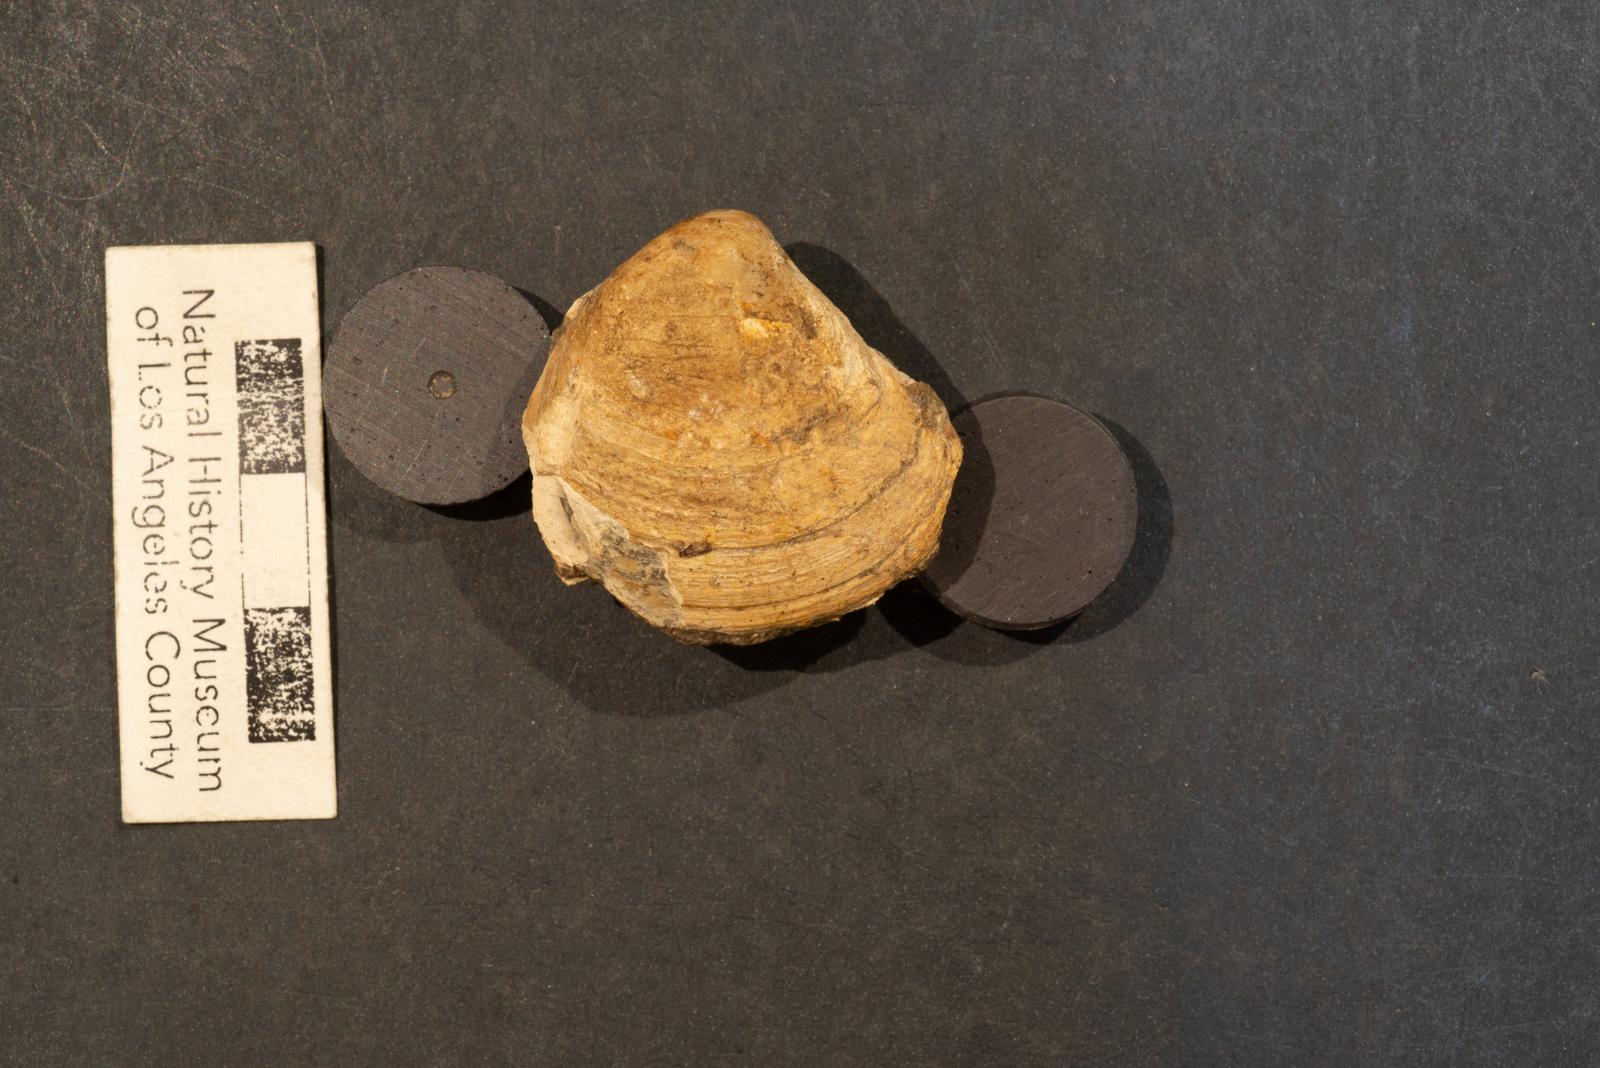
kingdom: Animalia
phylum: Mollusca
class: Bivalvia
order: Venerida
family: Veneridae
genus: Calva
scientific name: Calva Cucullaea bowersiana
